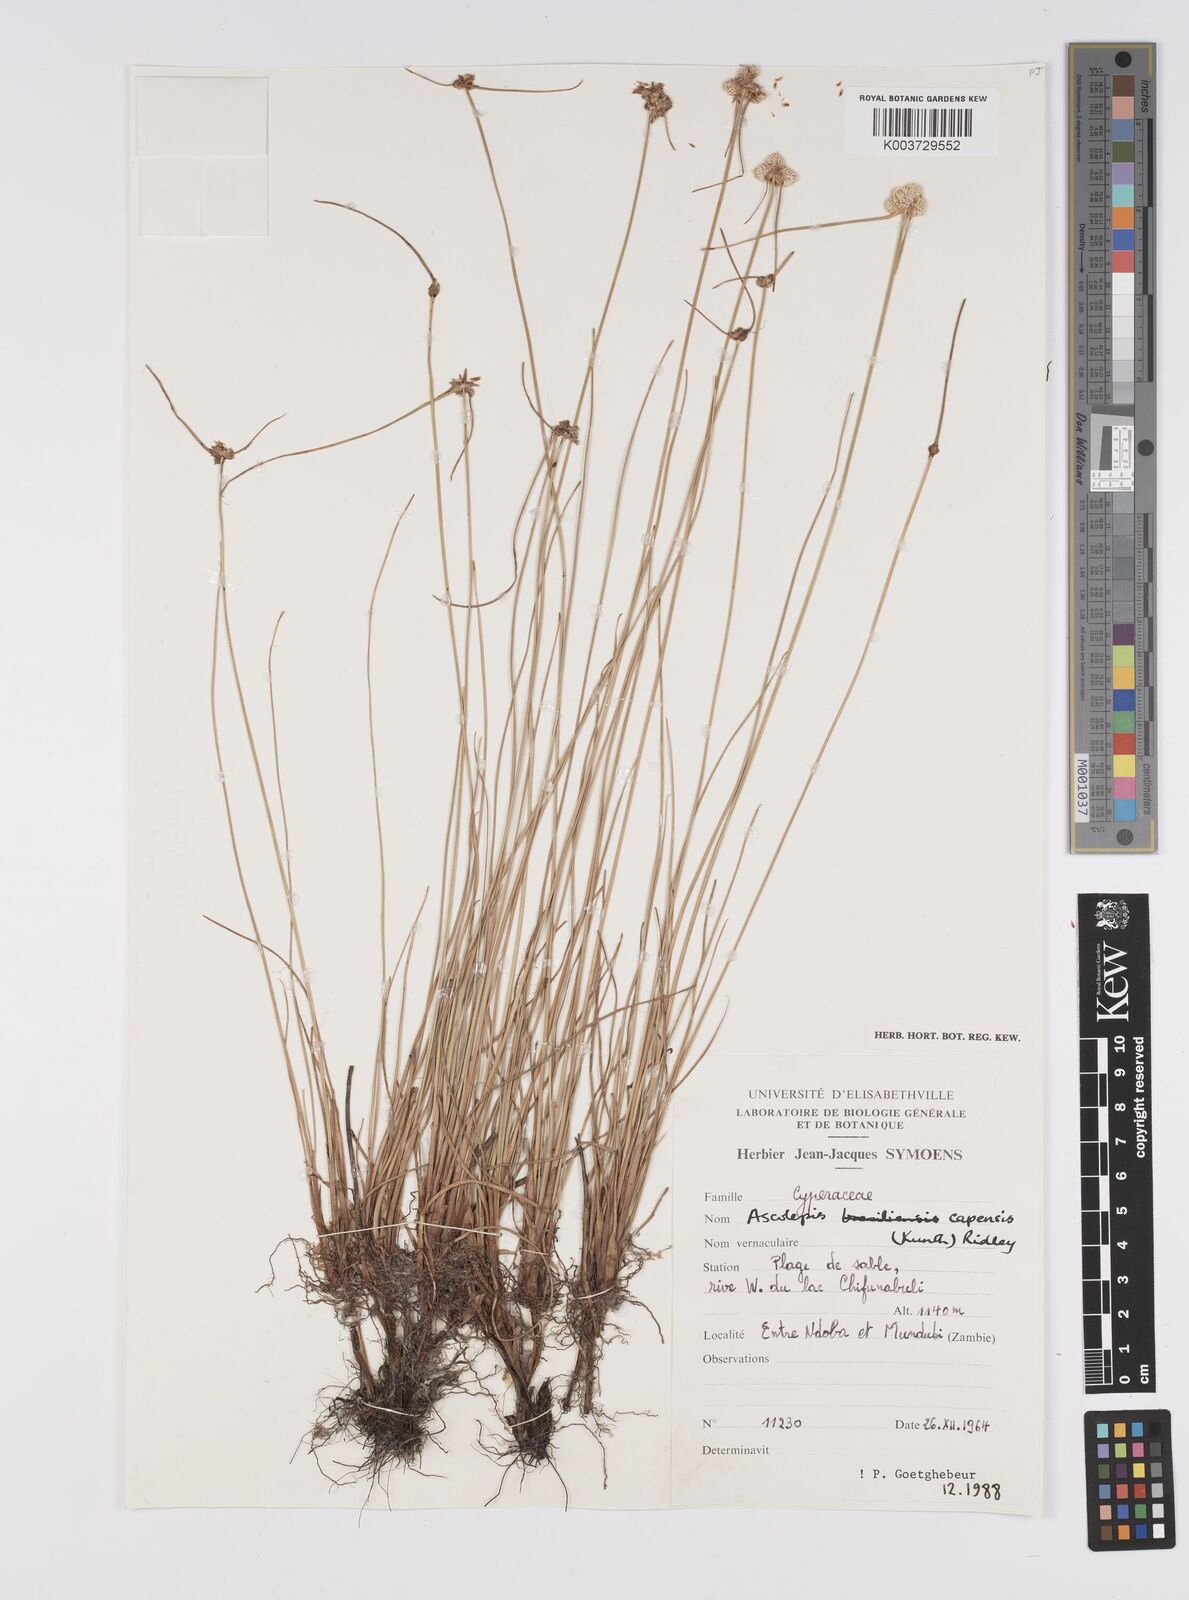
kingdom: Plantae
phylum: Tracheophyta
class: Liliopsida
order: Poales
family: Cyperaceae
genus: Cyperus
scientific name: Cyperus
